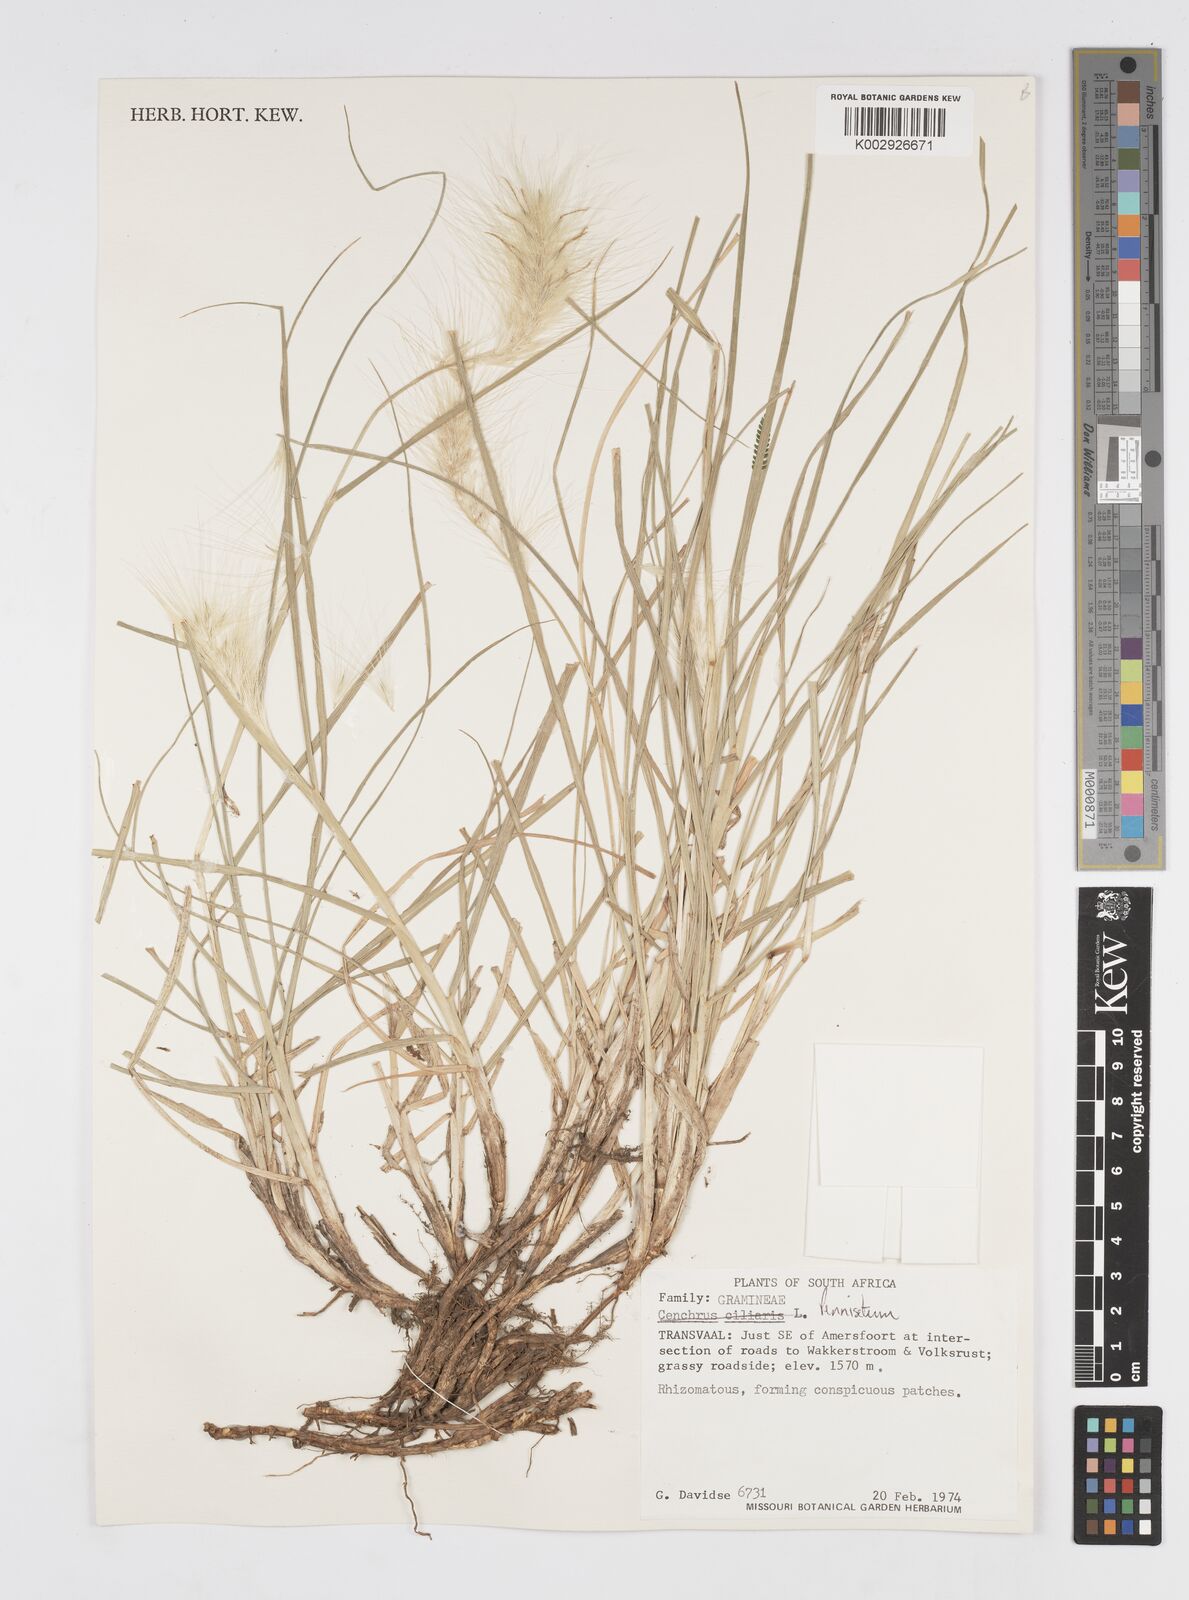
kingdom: Plantae
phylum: Tracheophyta
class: Liliopsida
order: Poales
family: Poaceae
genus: Cenchrus
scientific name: Cenchrus longisetus
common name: Feathertop
